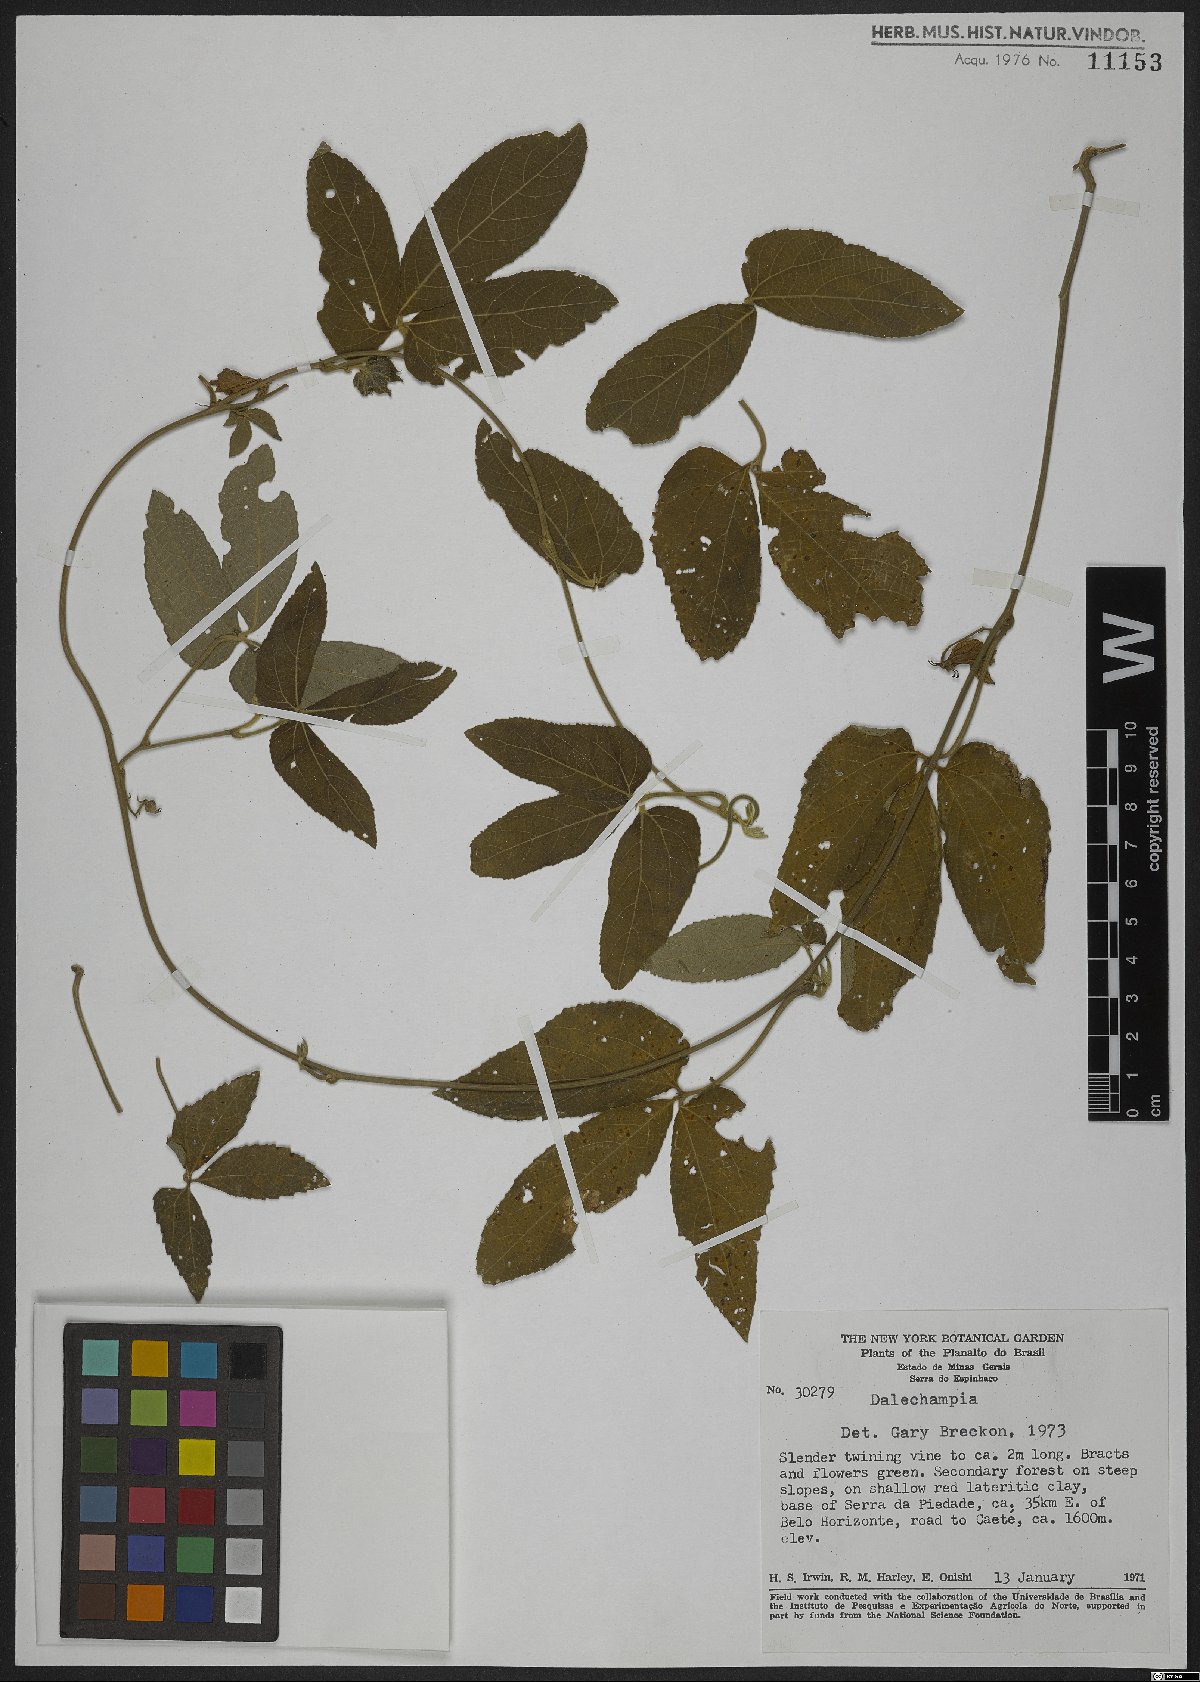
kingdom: Plantae
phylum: Tracheophyta
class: Magnoliopsida
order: Malpighiales
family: Euphorbiaceae
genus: Dalechampia
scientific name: Dalechampia
